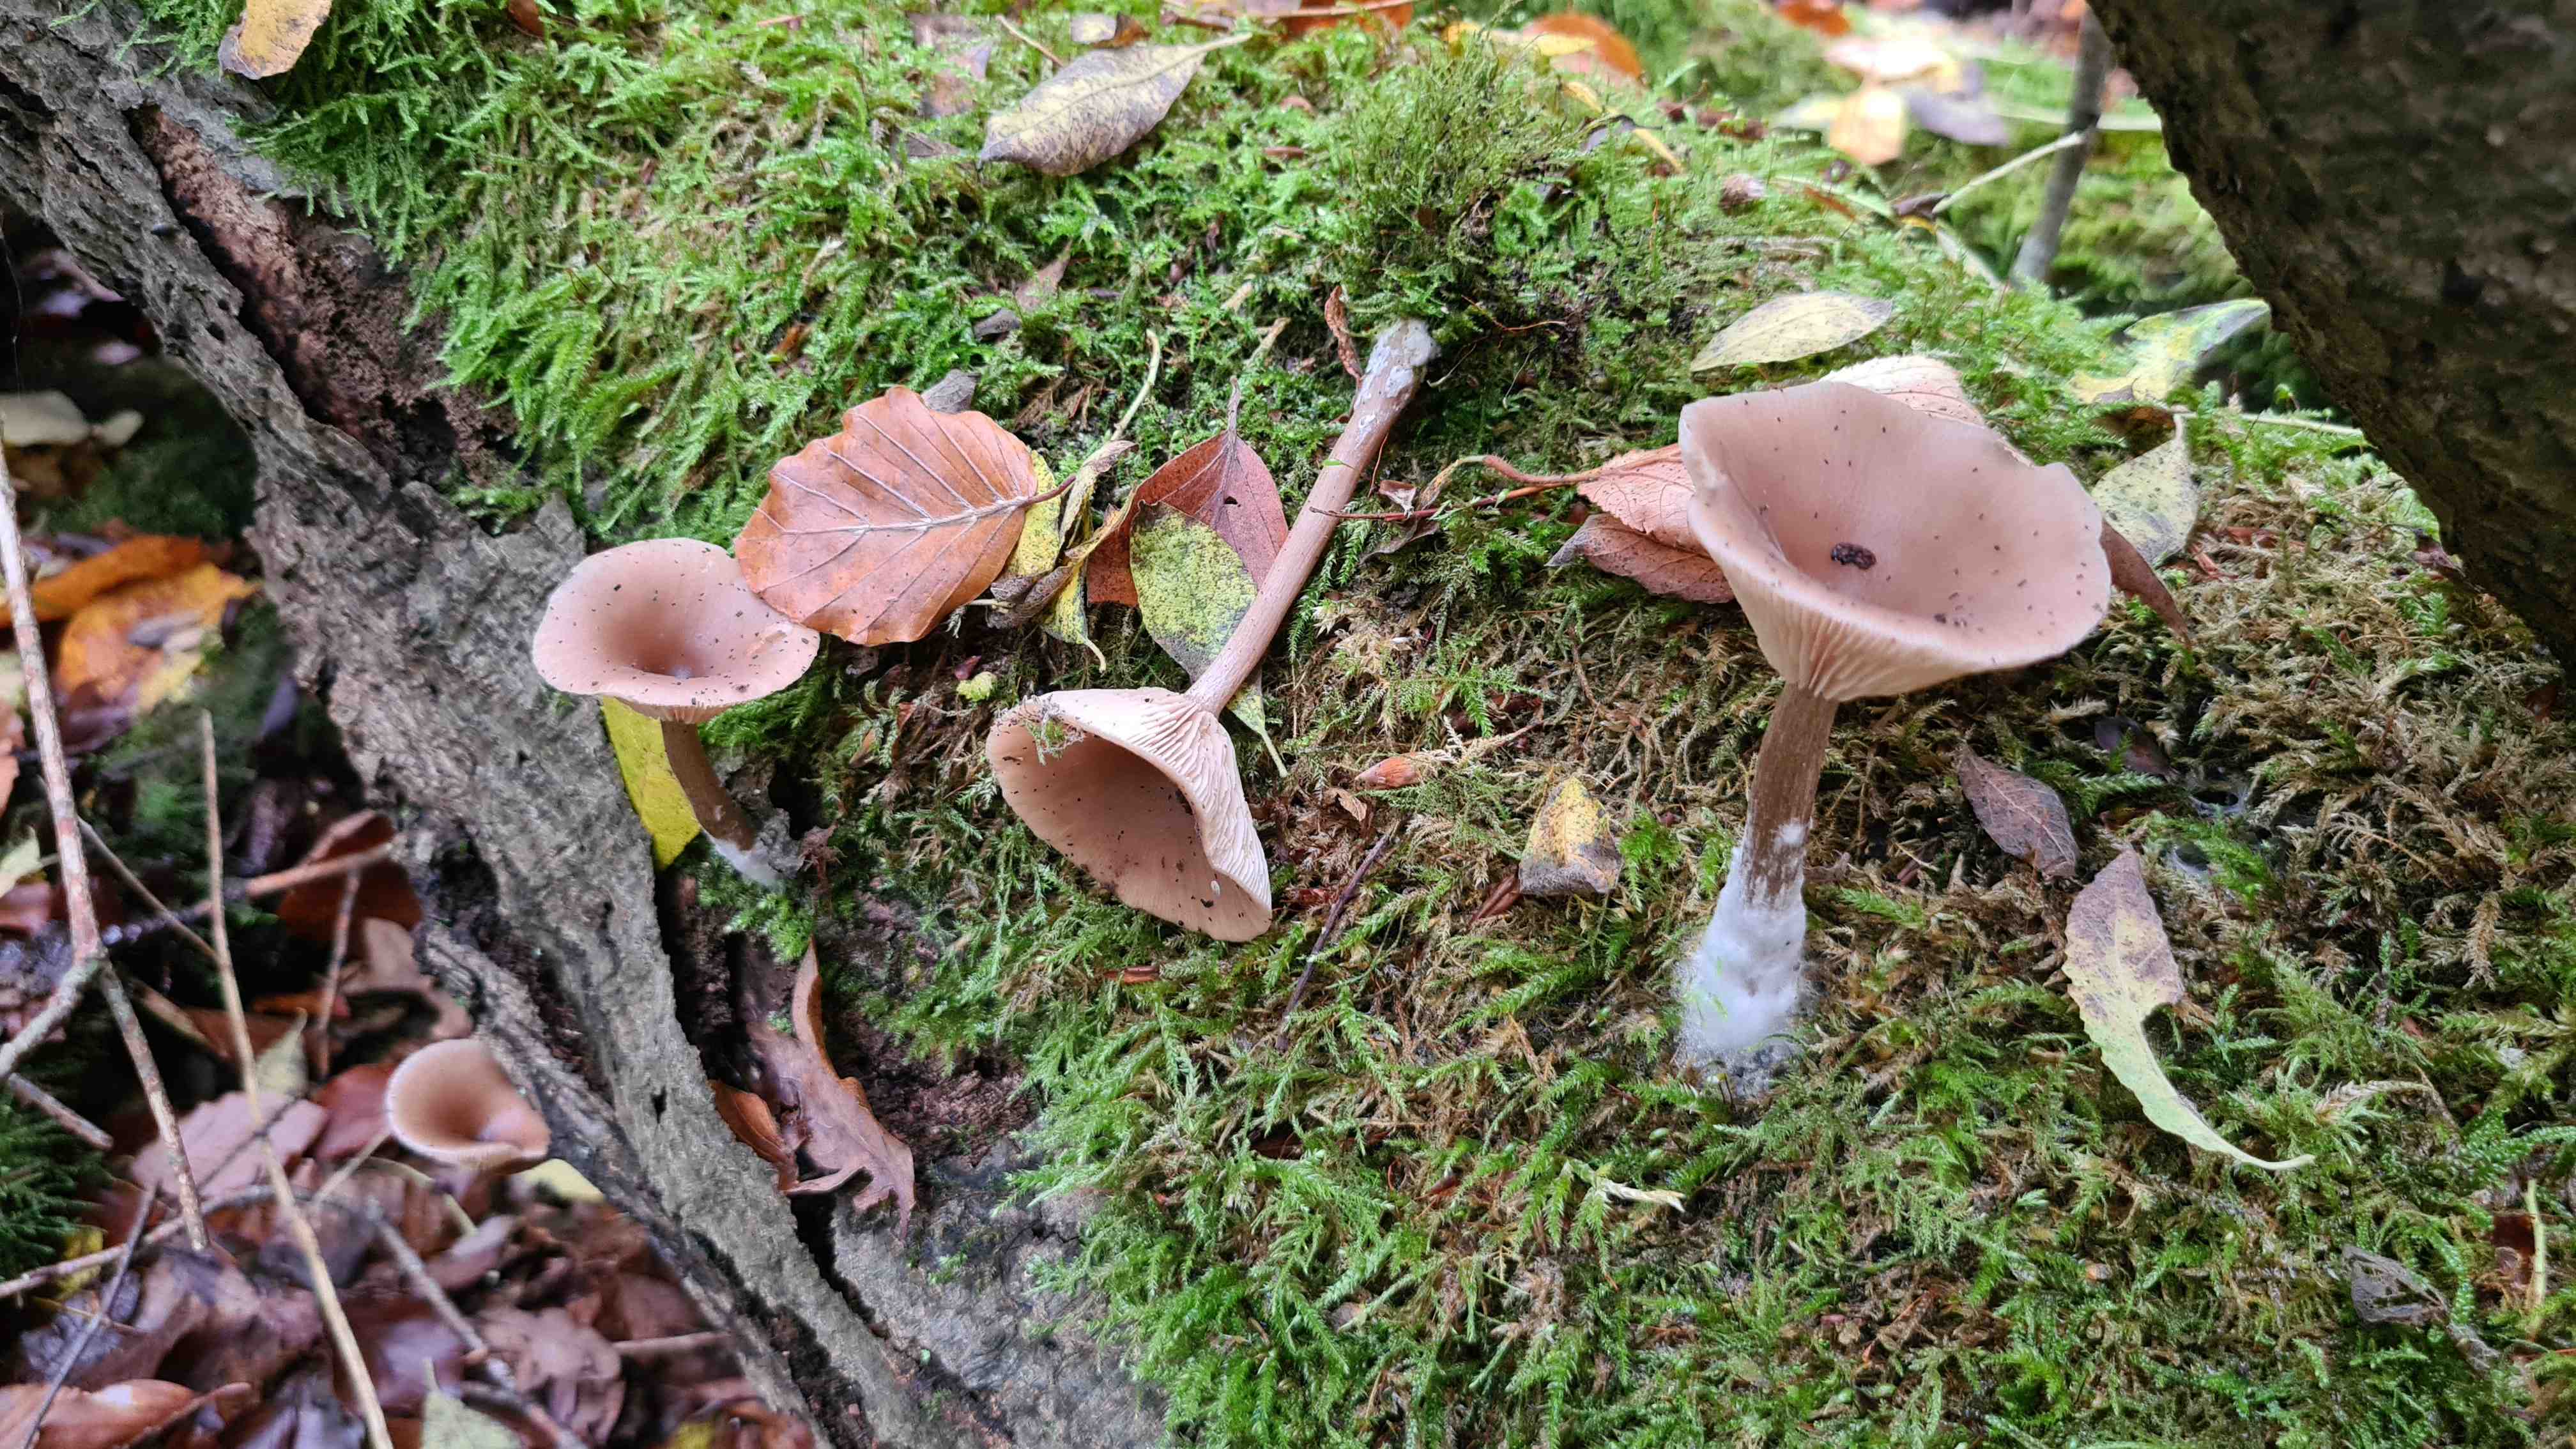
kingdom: Fungi
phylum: Basidiomycota
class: Agaricomycetes
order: Agaricales
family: Pseudoclitocybaceae
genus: Pseudoclitocybe
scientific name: Pseudoclitocybe cyathiformis
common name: almindelig bægertragthat
